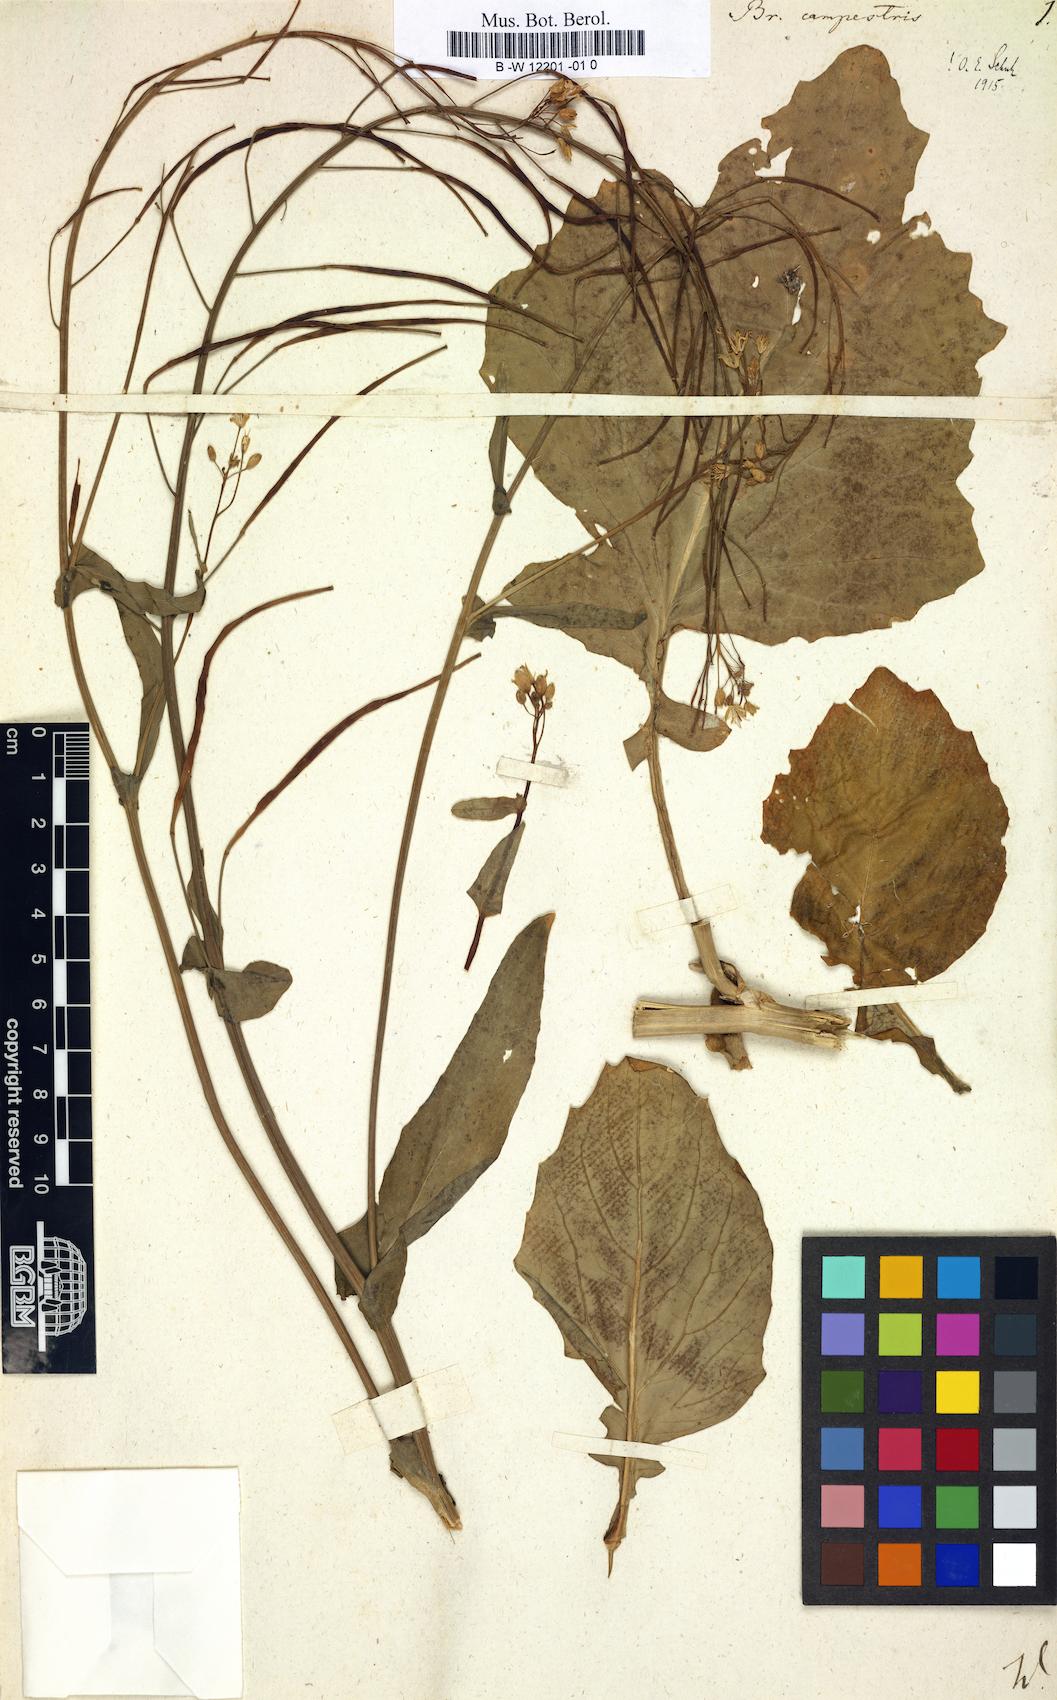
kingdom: Plantae
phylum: Tracheophyta
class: Magnoliopsida
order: Brassicales
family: Brassicaceae
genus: Brassica
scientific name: Brassica campestris
